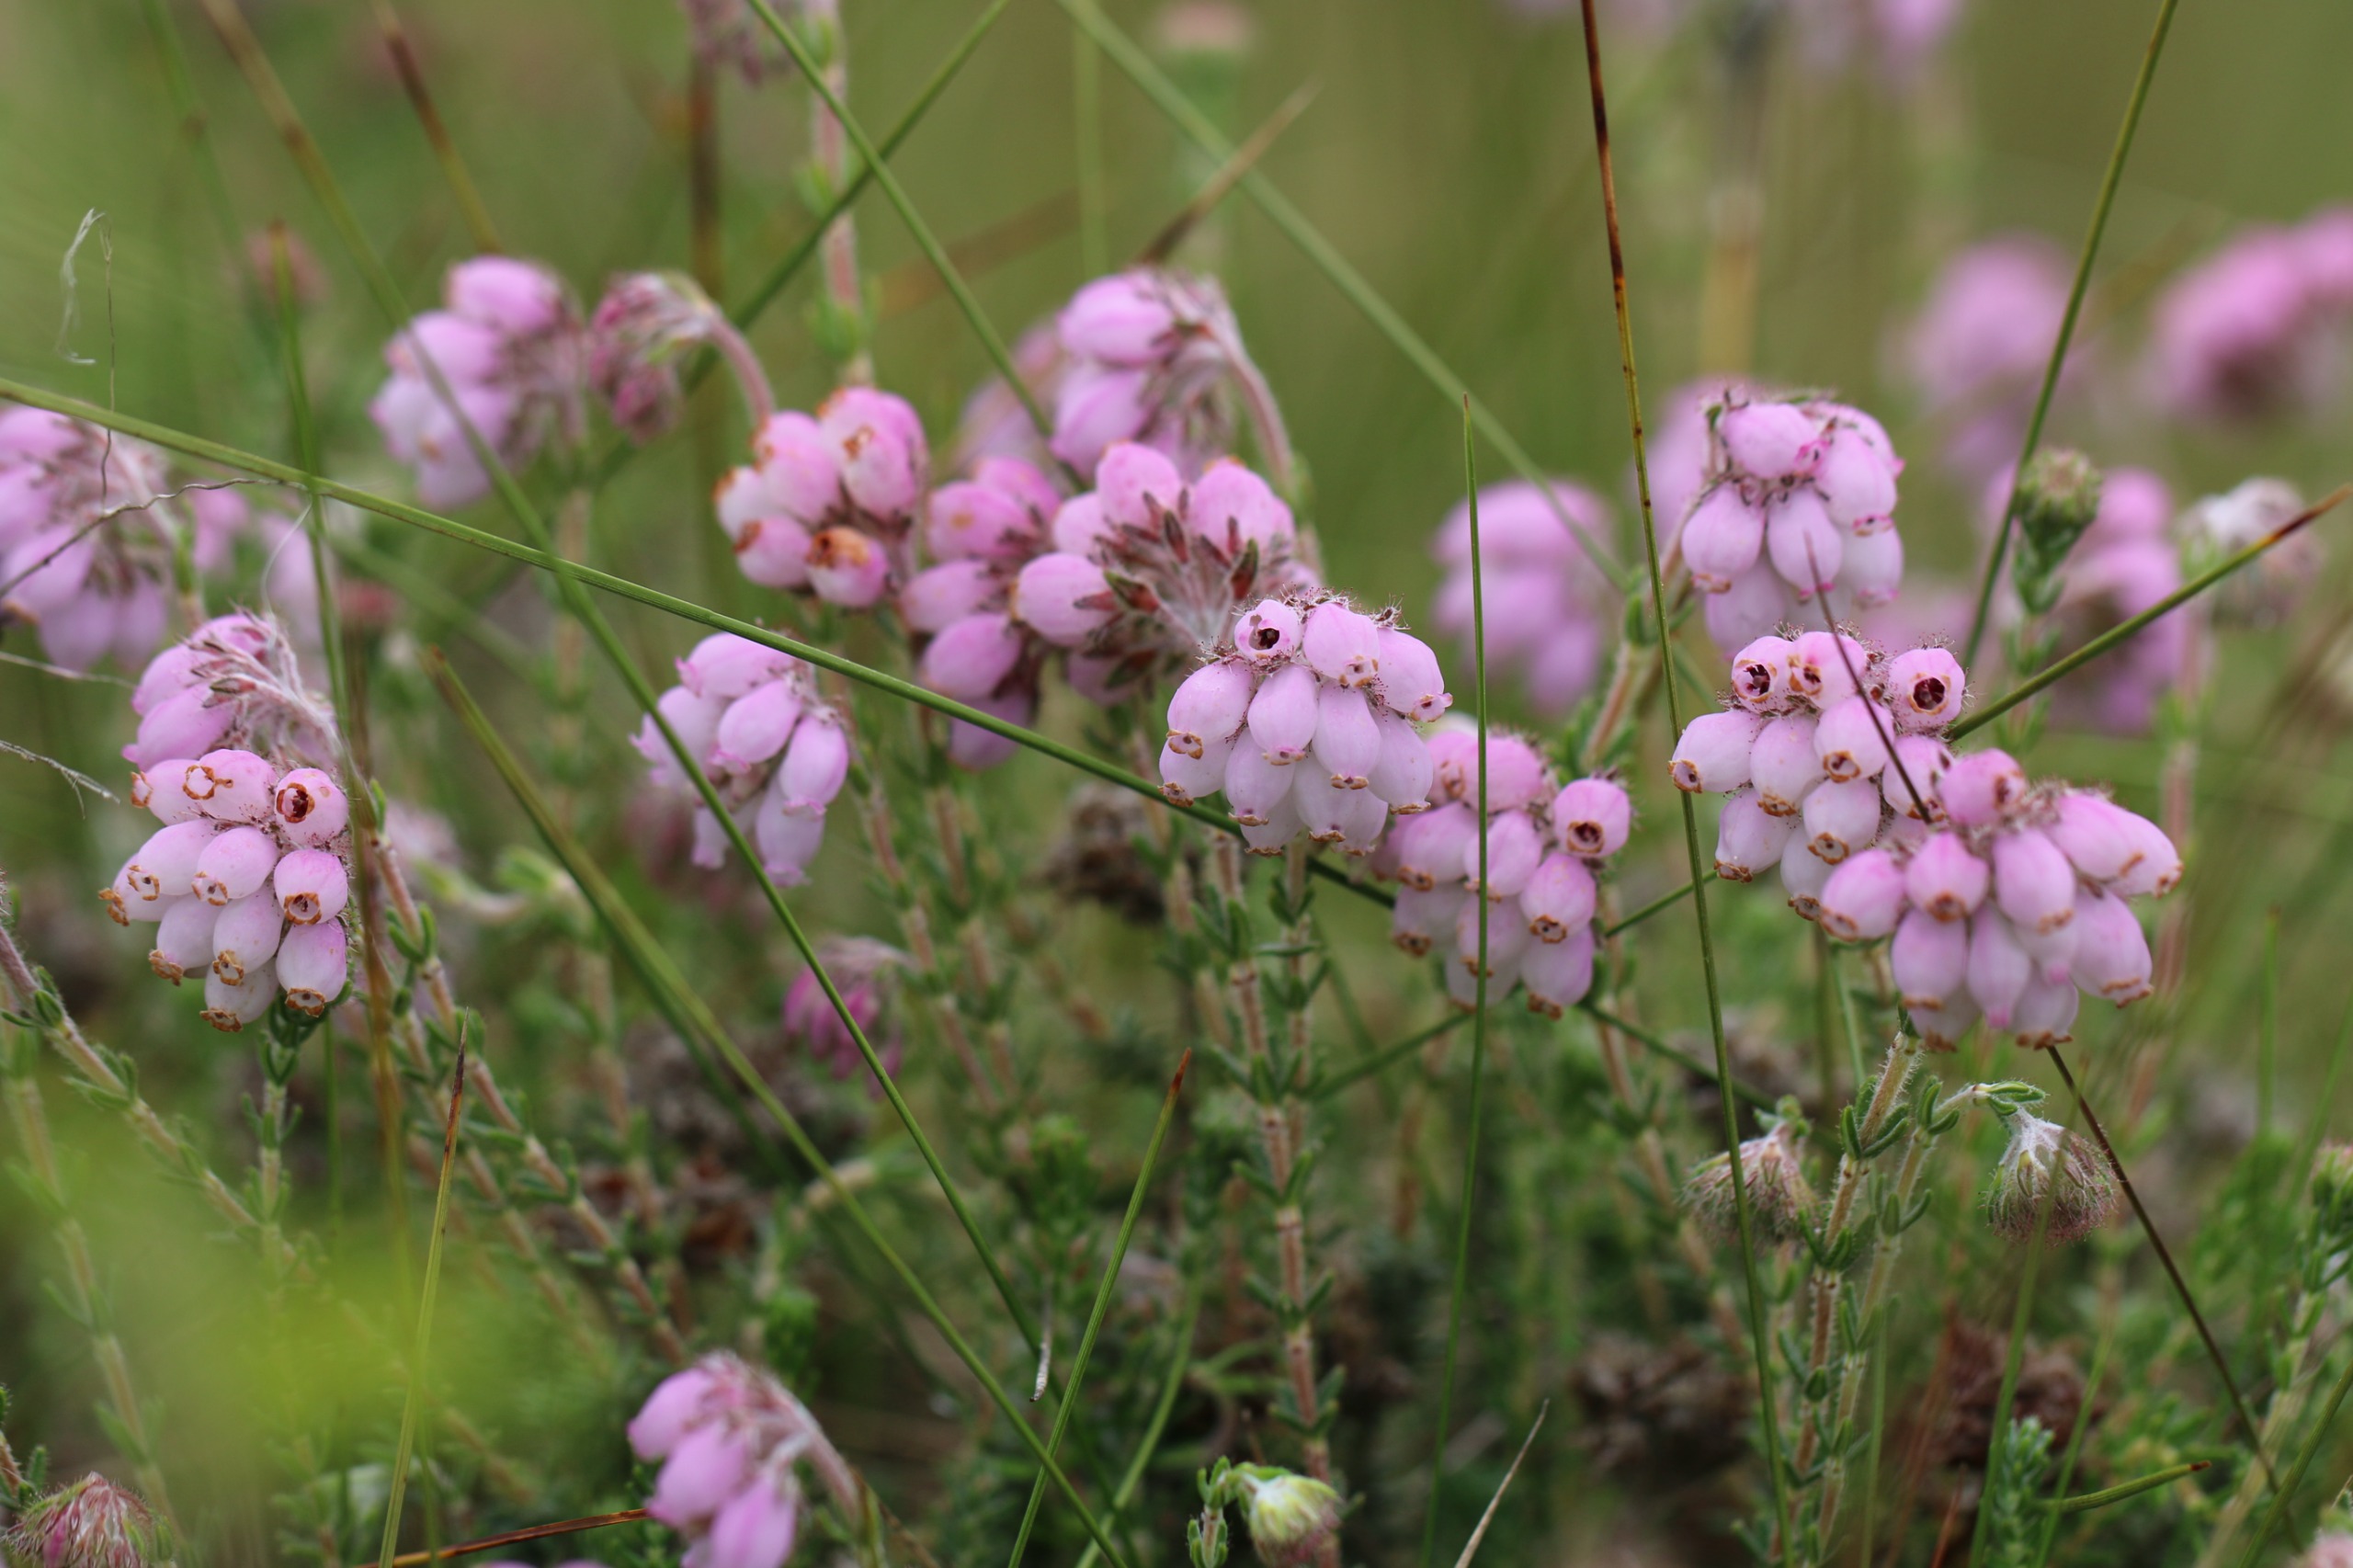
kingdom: Plantae
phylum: Tracheophyta
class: Magnoliopsida
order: Ericales
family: Ericaceae
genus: Erica
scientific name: Erica tetralix
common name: Klokkelyng
